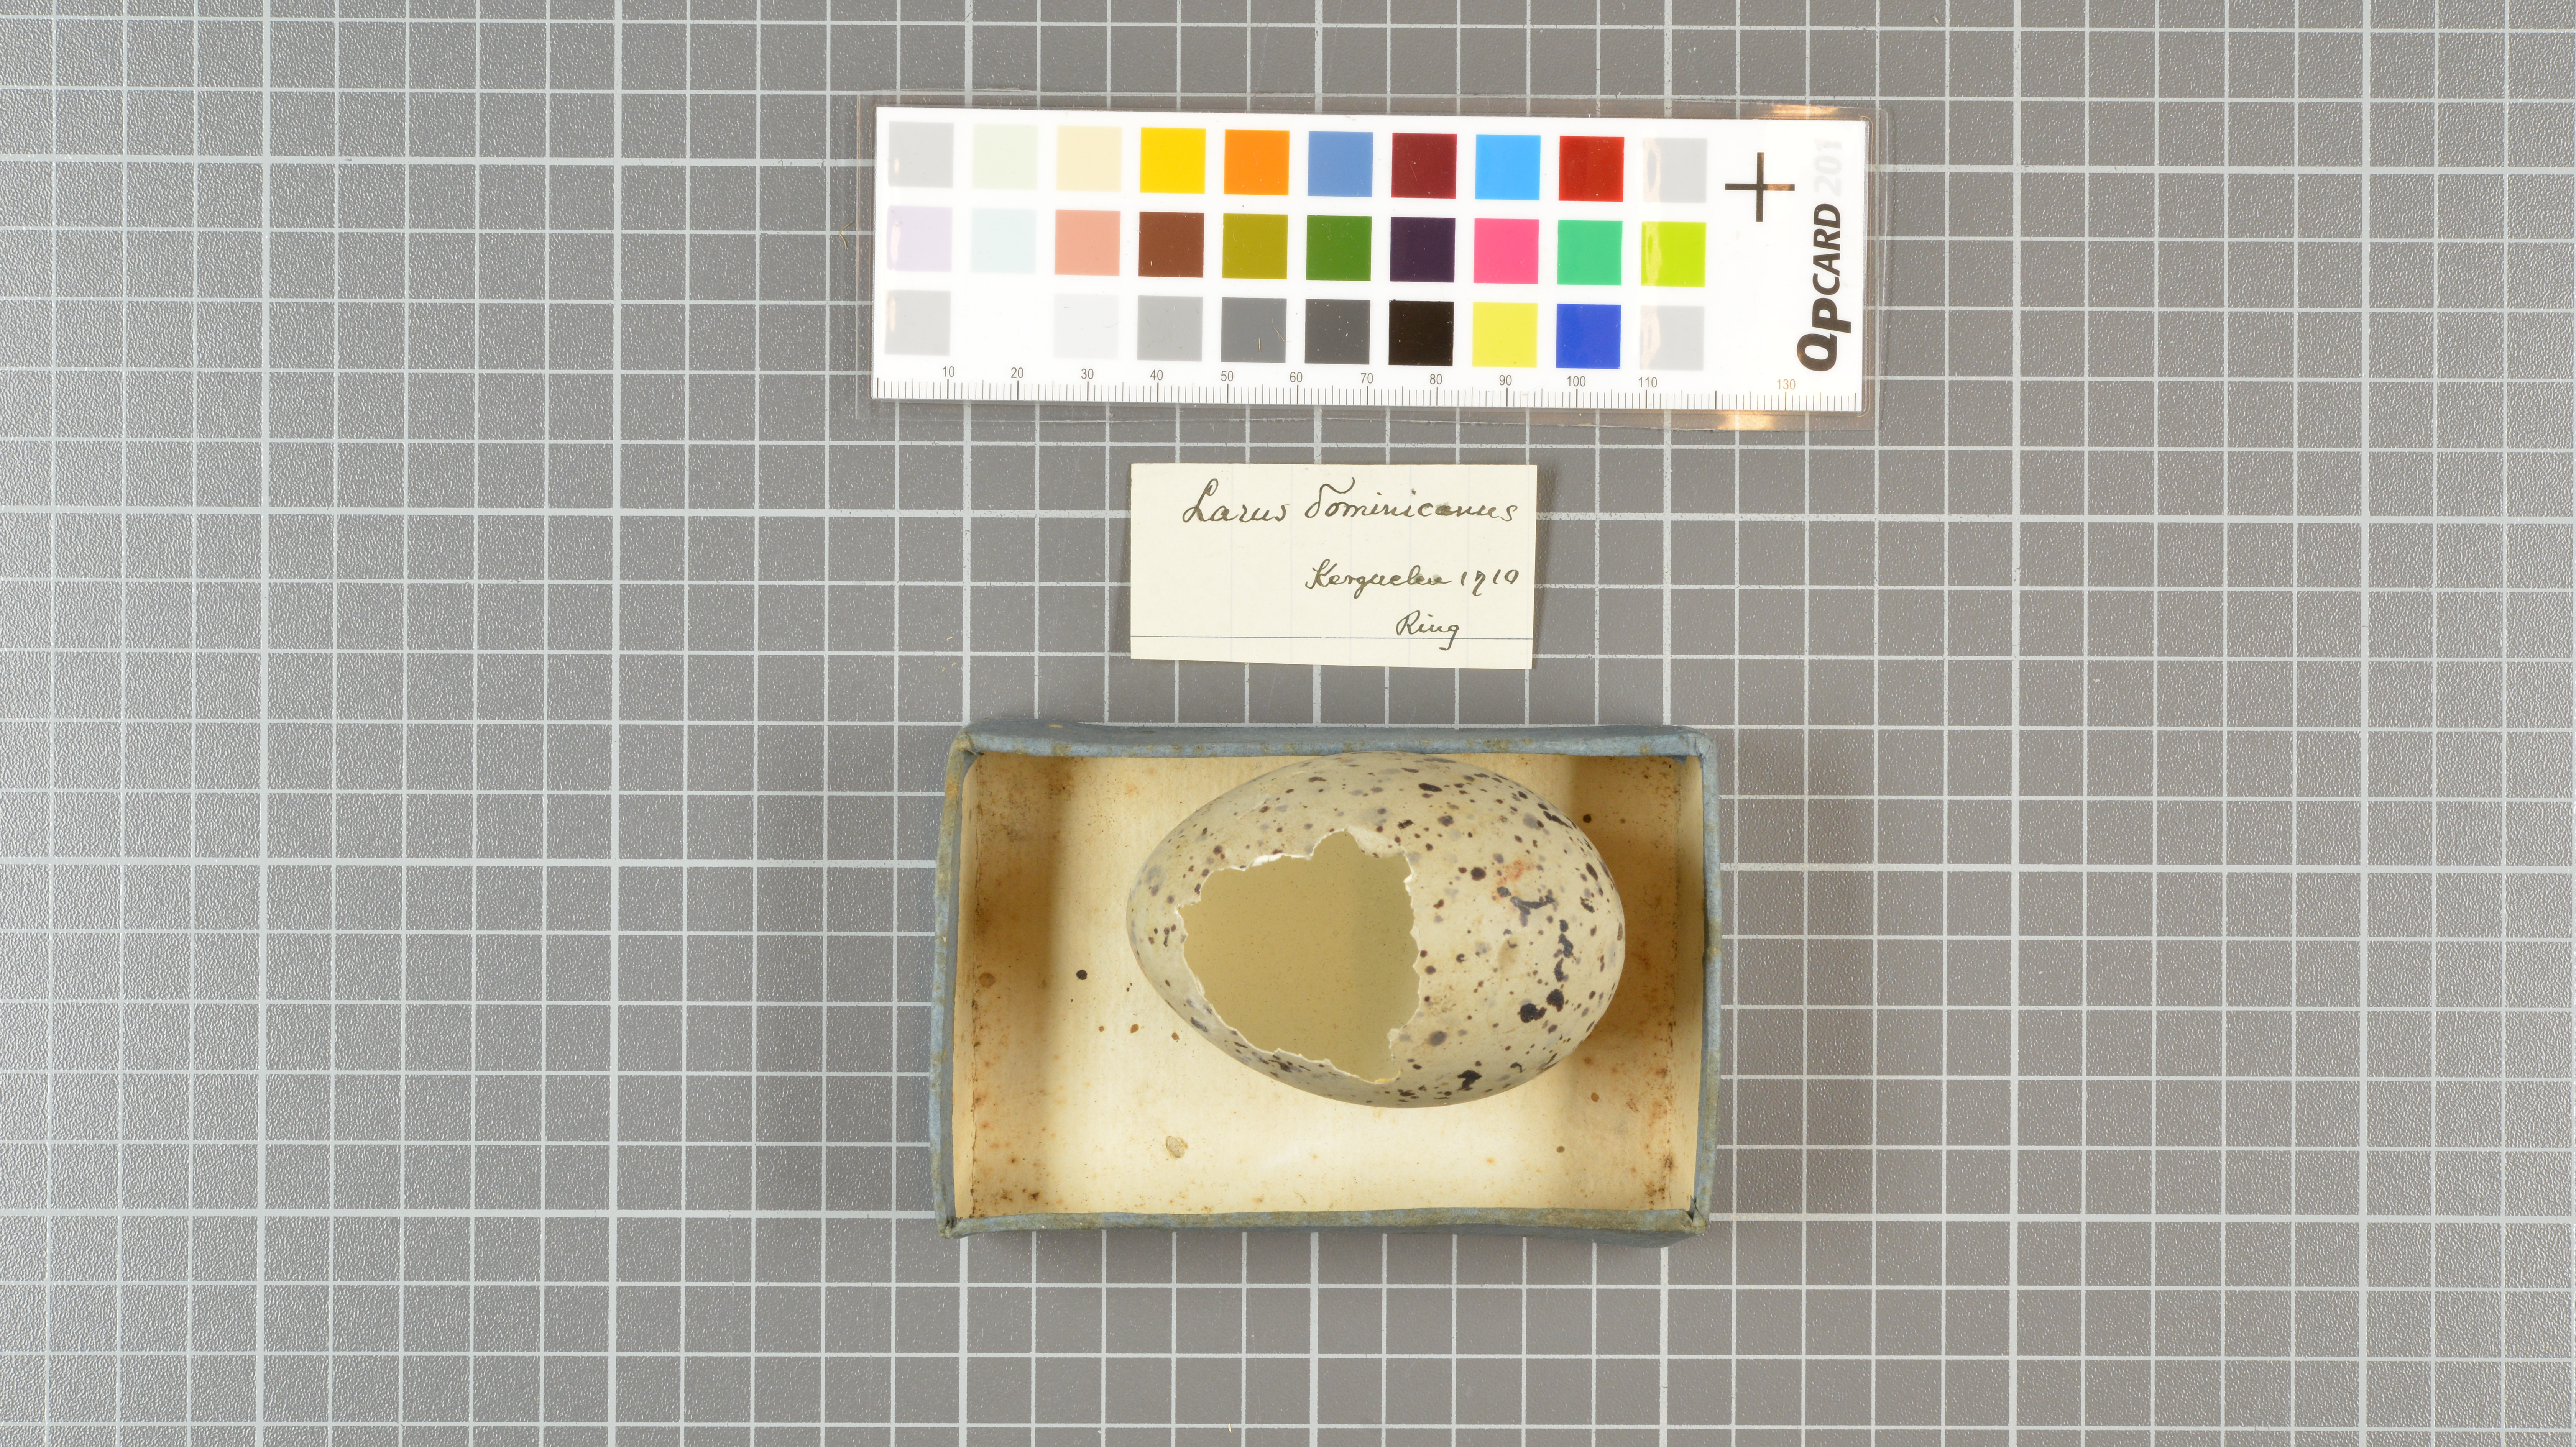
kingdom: Animalia
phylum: Chordata
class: Aves
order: Charadriiformes
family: Laridae
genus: Larus
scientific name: Larus dominicanus
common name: Kelp gull
